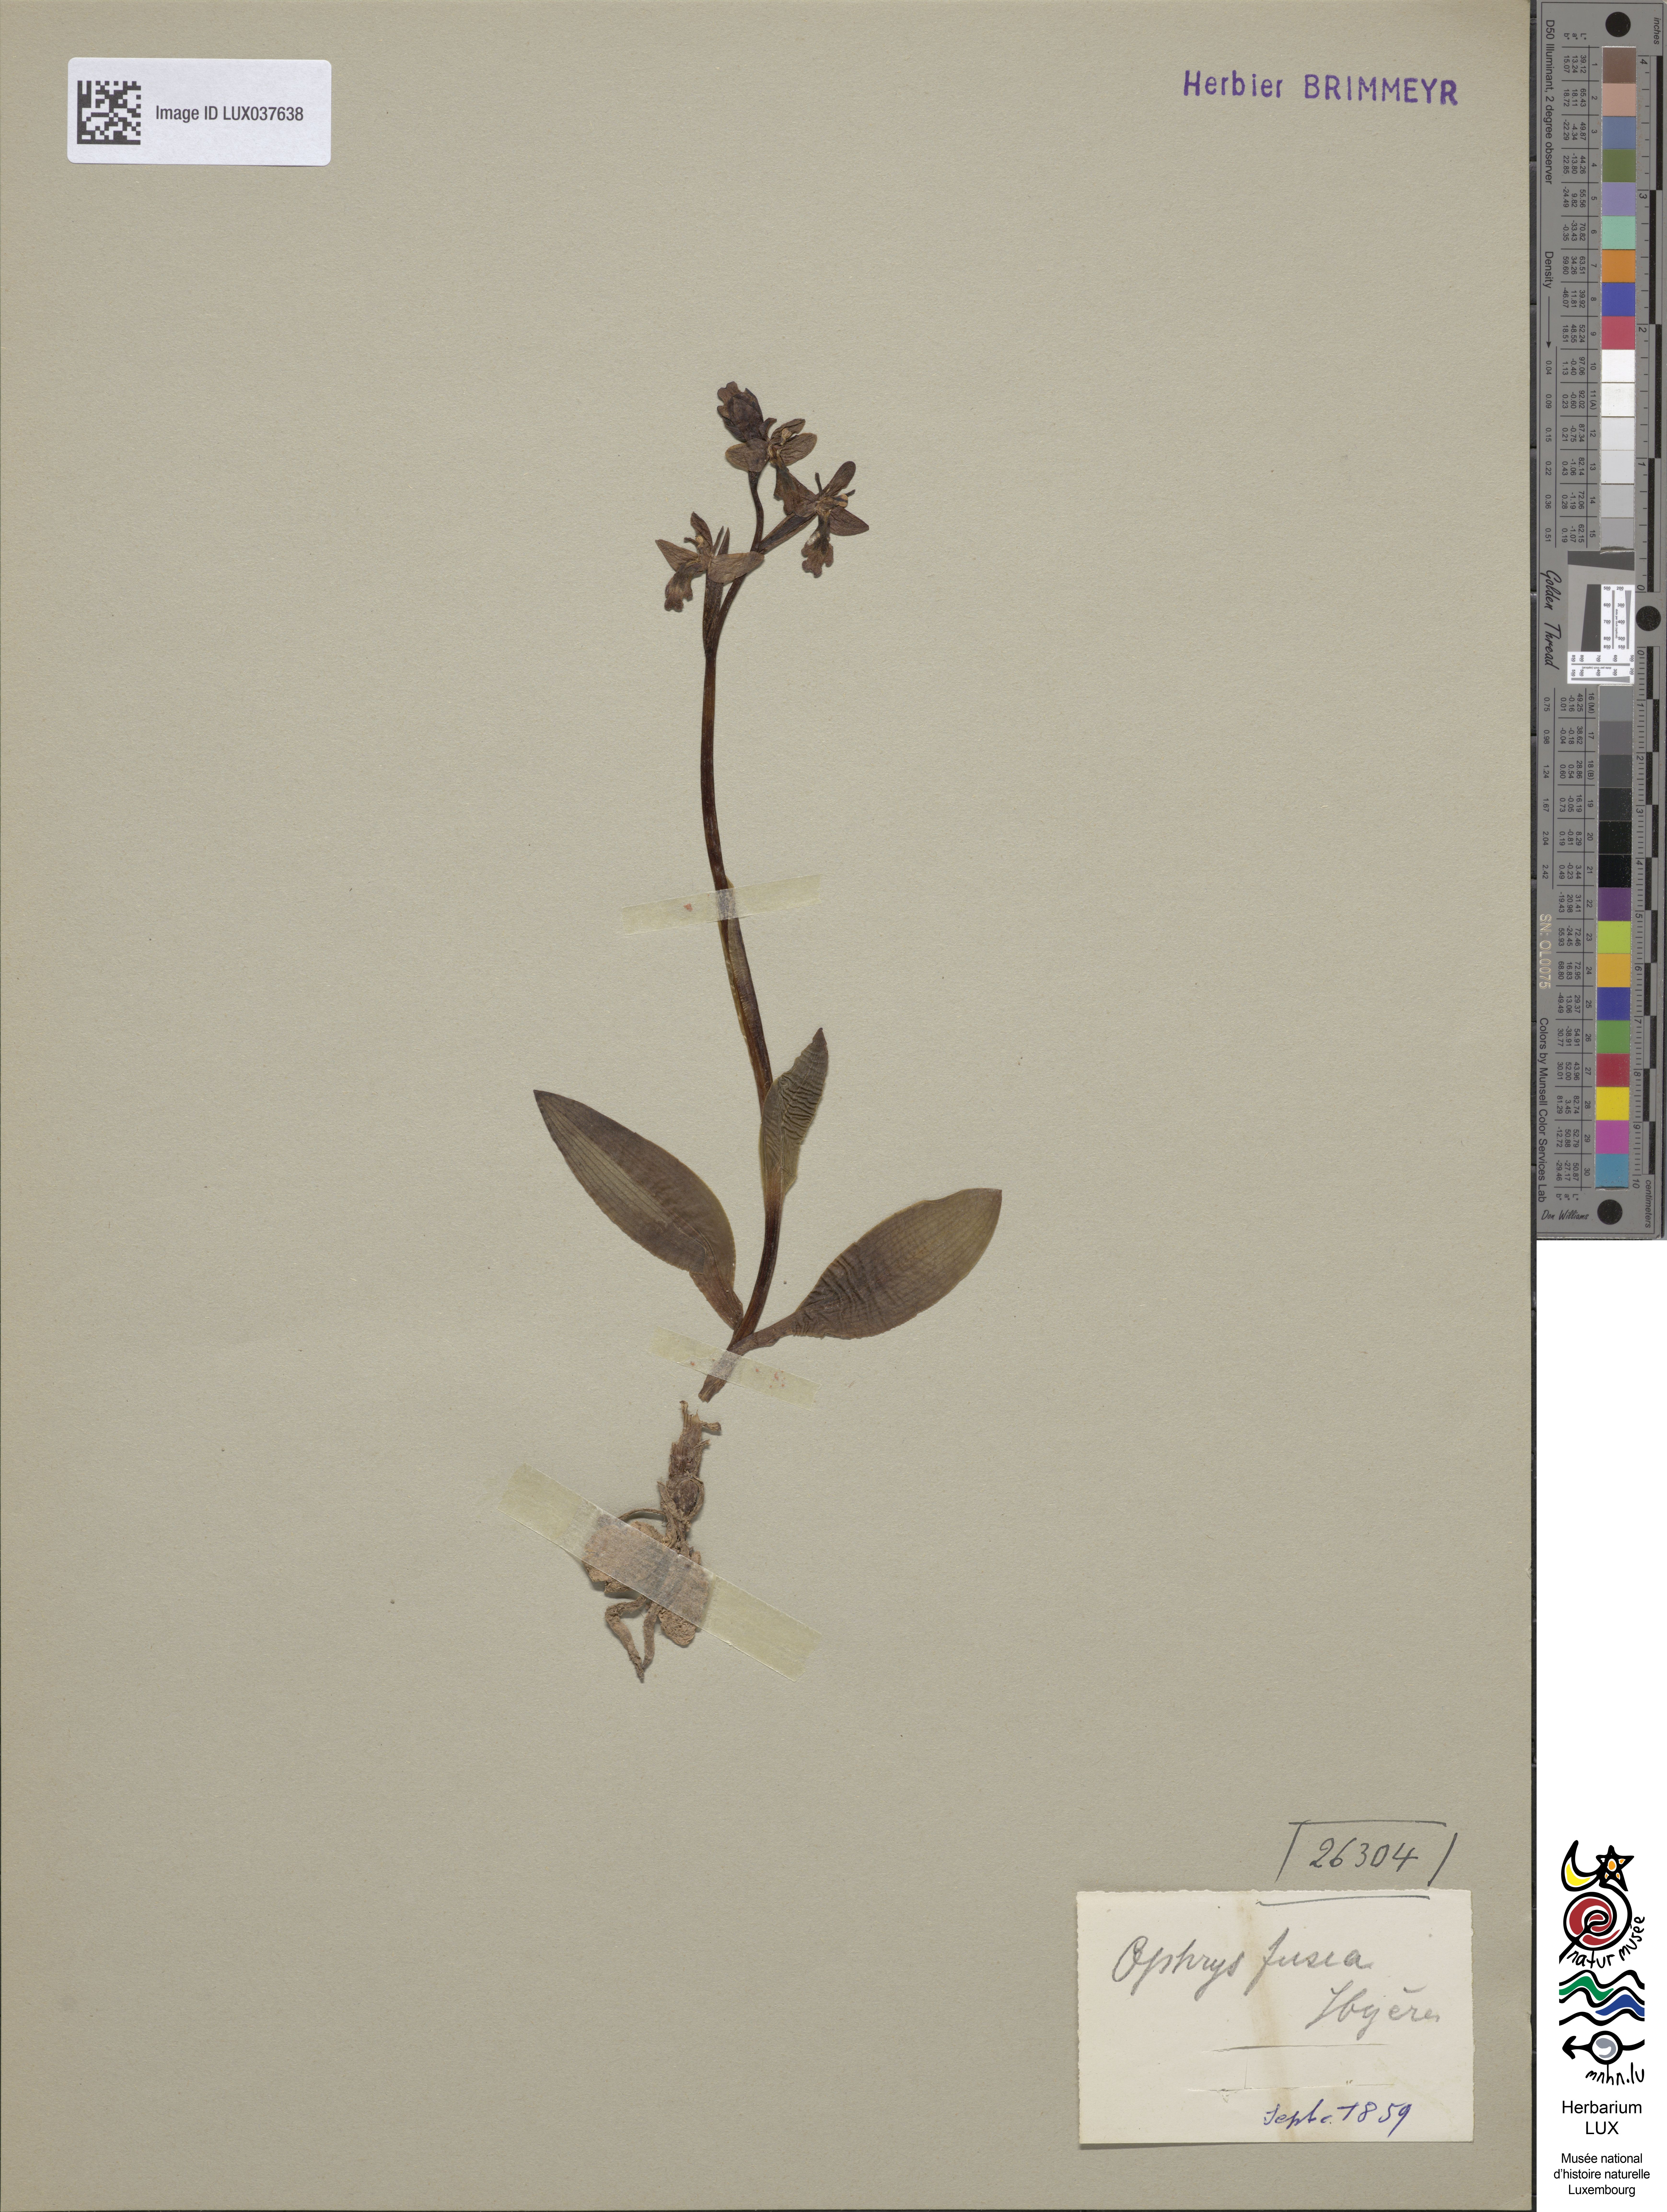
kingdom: Plantae
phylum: Tracheophyta
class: Liliopsida
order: Asparagales
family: Orchidaceae
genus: Ophrys
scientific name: Ophrys fusca
